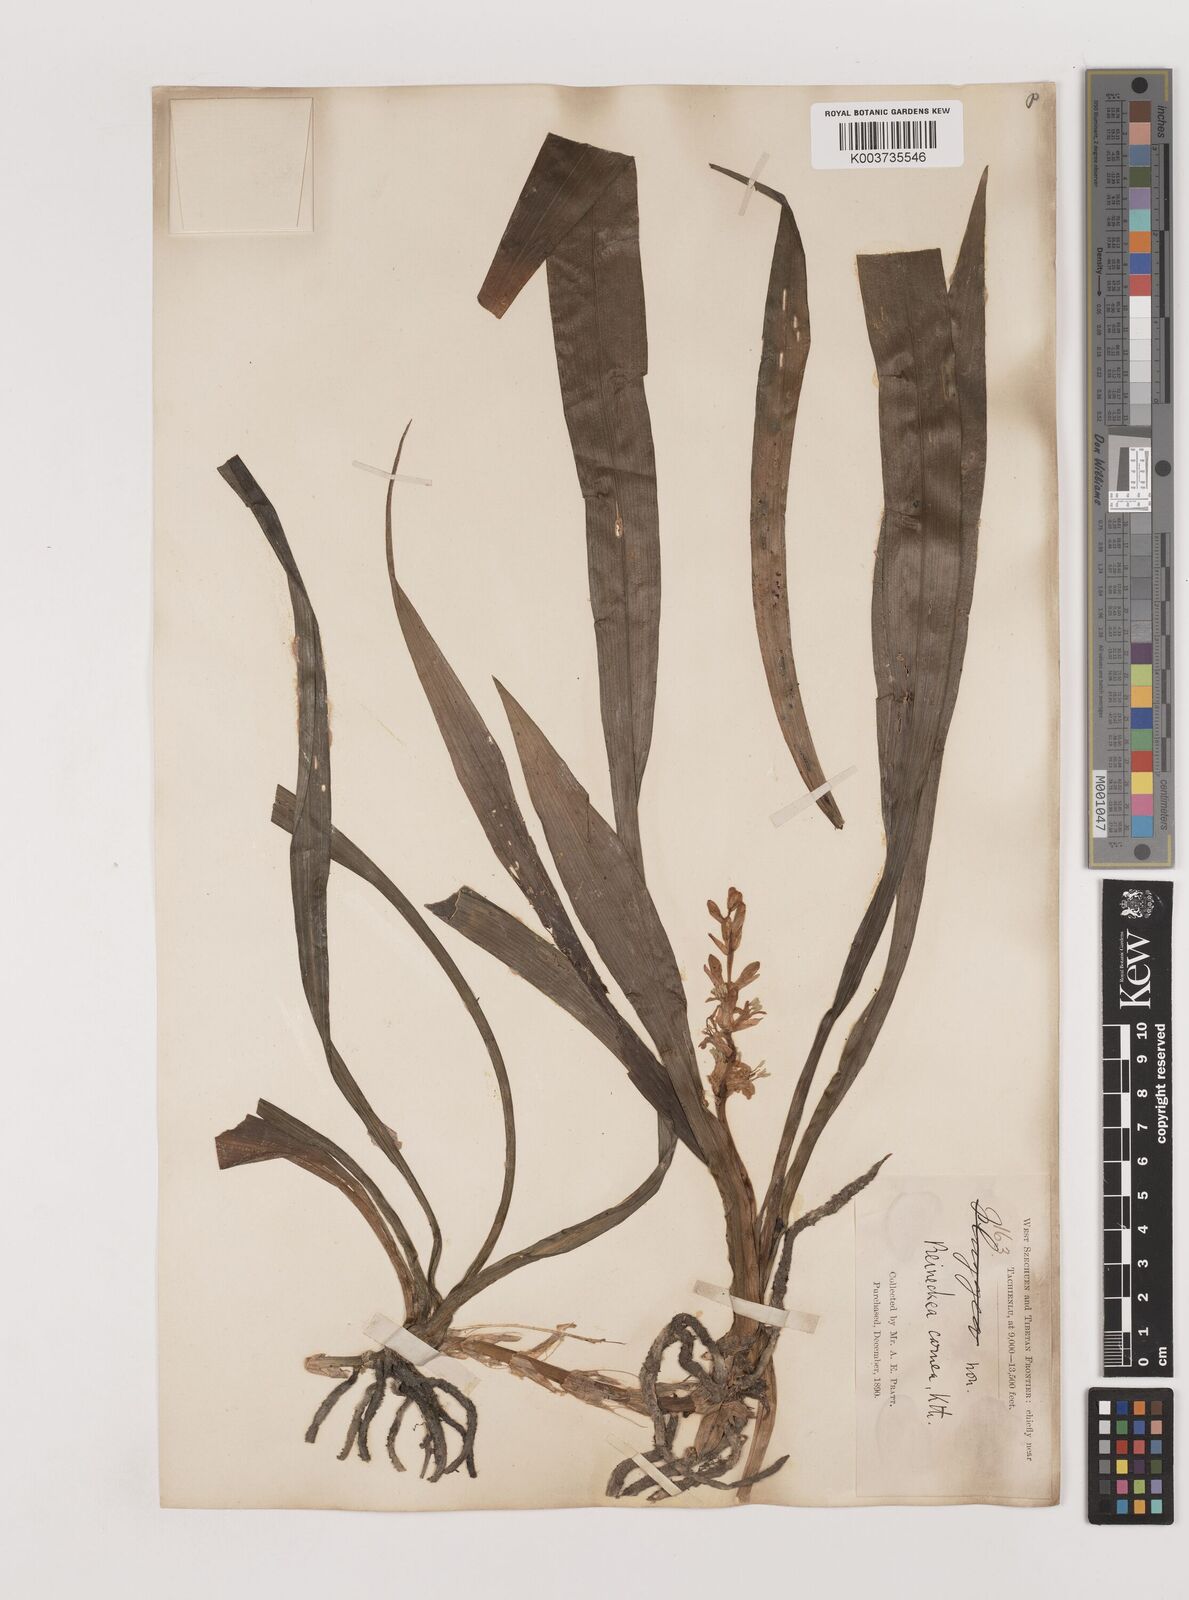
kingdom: Plantae
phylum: Tracheophyta
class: Liliopsida
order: Asparagales
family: Asparagaceae
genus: Reineckea
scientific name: Reineckea carnea
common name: Reineckea
